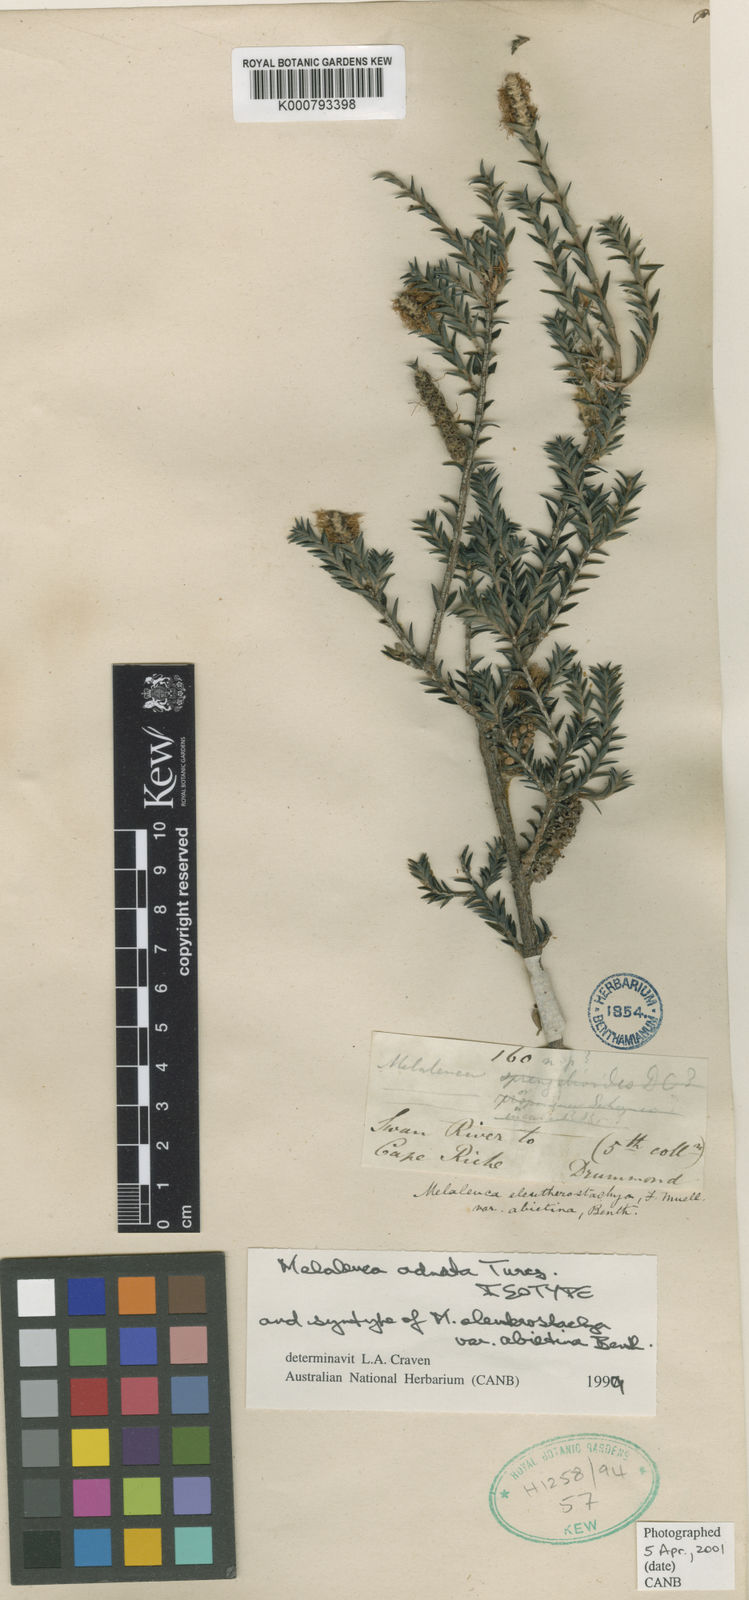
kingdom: Plantae
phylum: Tracheophyta
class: Magnoliopsida
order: Myrtales
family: Myrtaceae
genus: Melaleuca
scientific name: Melaleuca adnata
